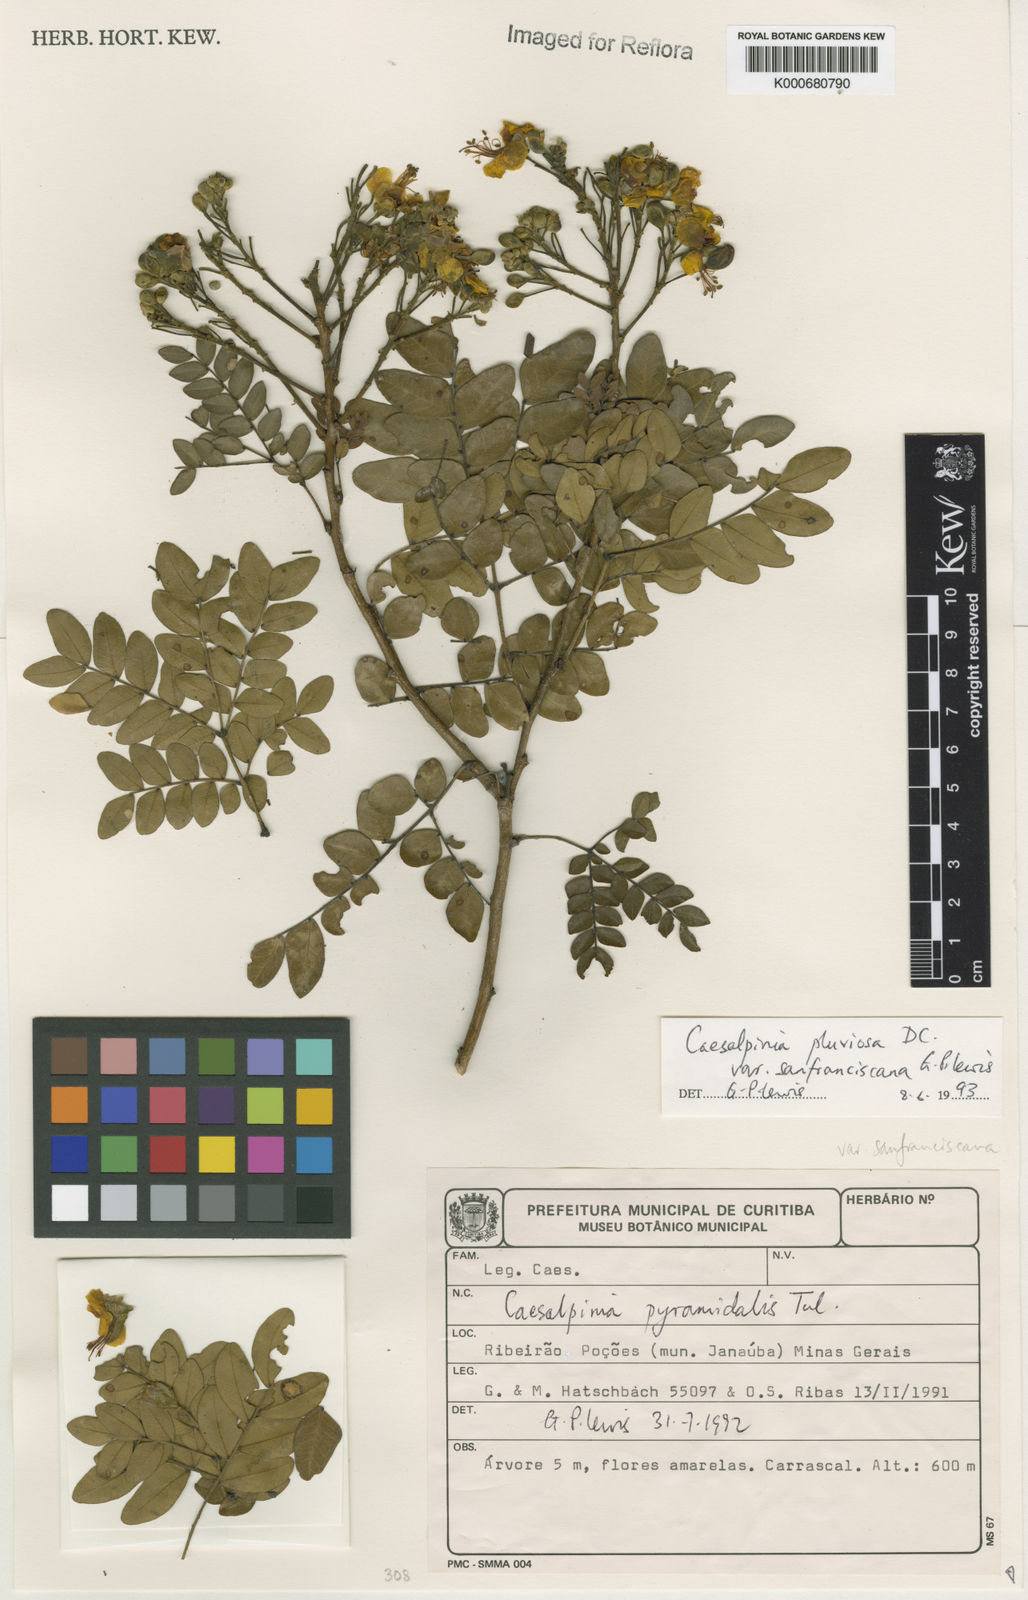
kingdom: Plantae
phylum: Tracheophyta
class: Magnoliopsida
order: Fabales
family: Fabaceae
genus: Cenostigma
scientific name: Cenostigma pluviosum
